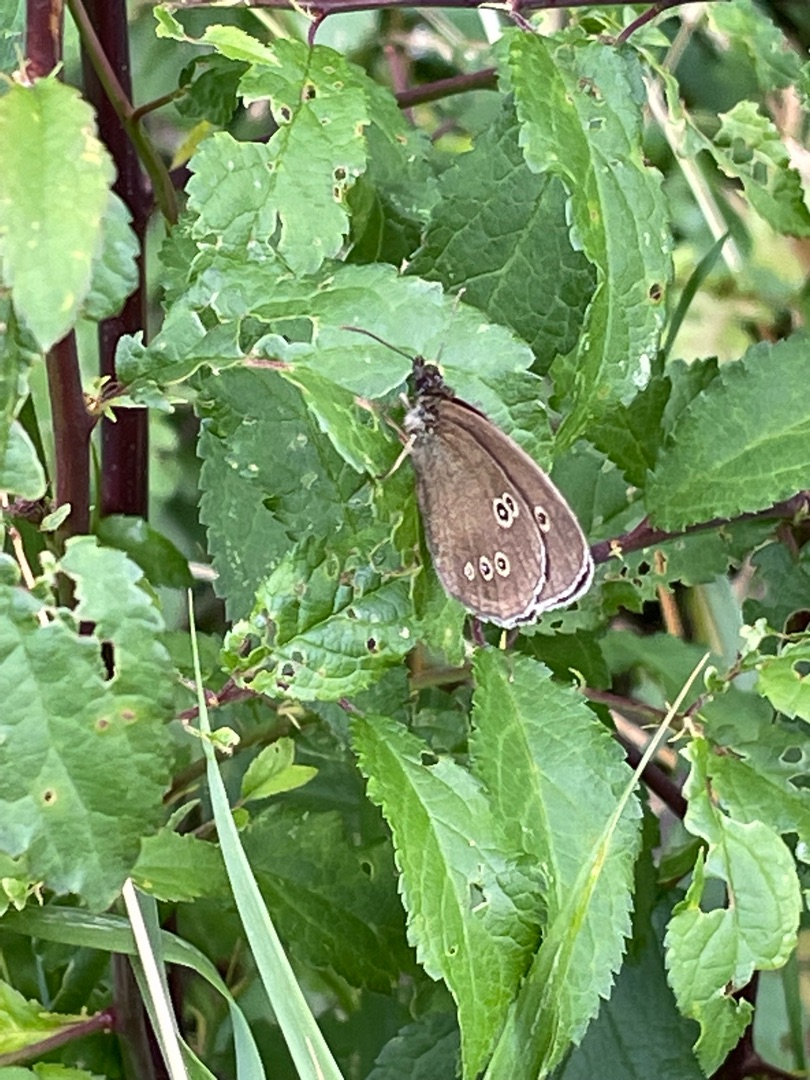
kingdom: Animalia
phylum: Arthropoda
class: Insecta
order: Lepidoptera
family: Nymphalidae
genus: Aphantopus
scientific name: Aphantopus hyperantus
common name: Engrandøje
